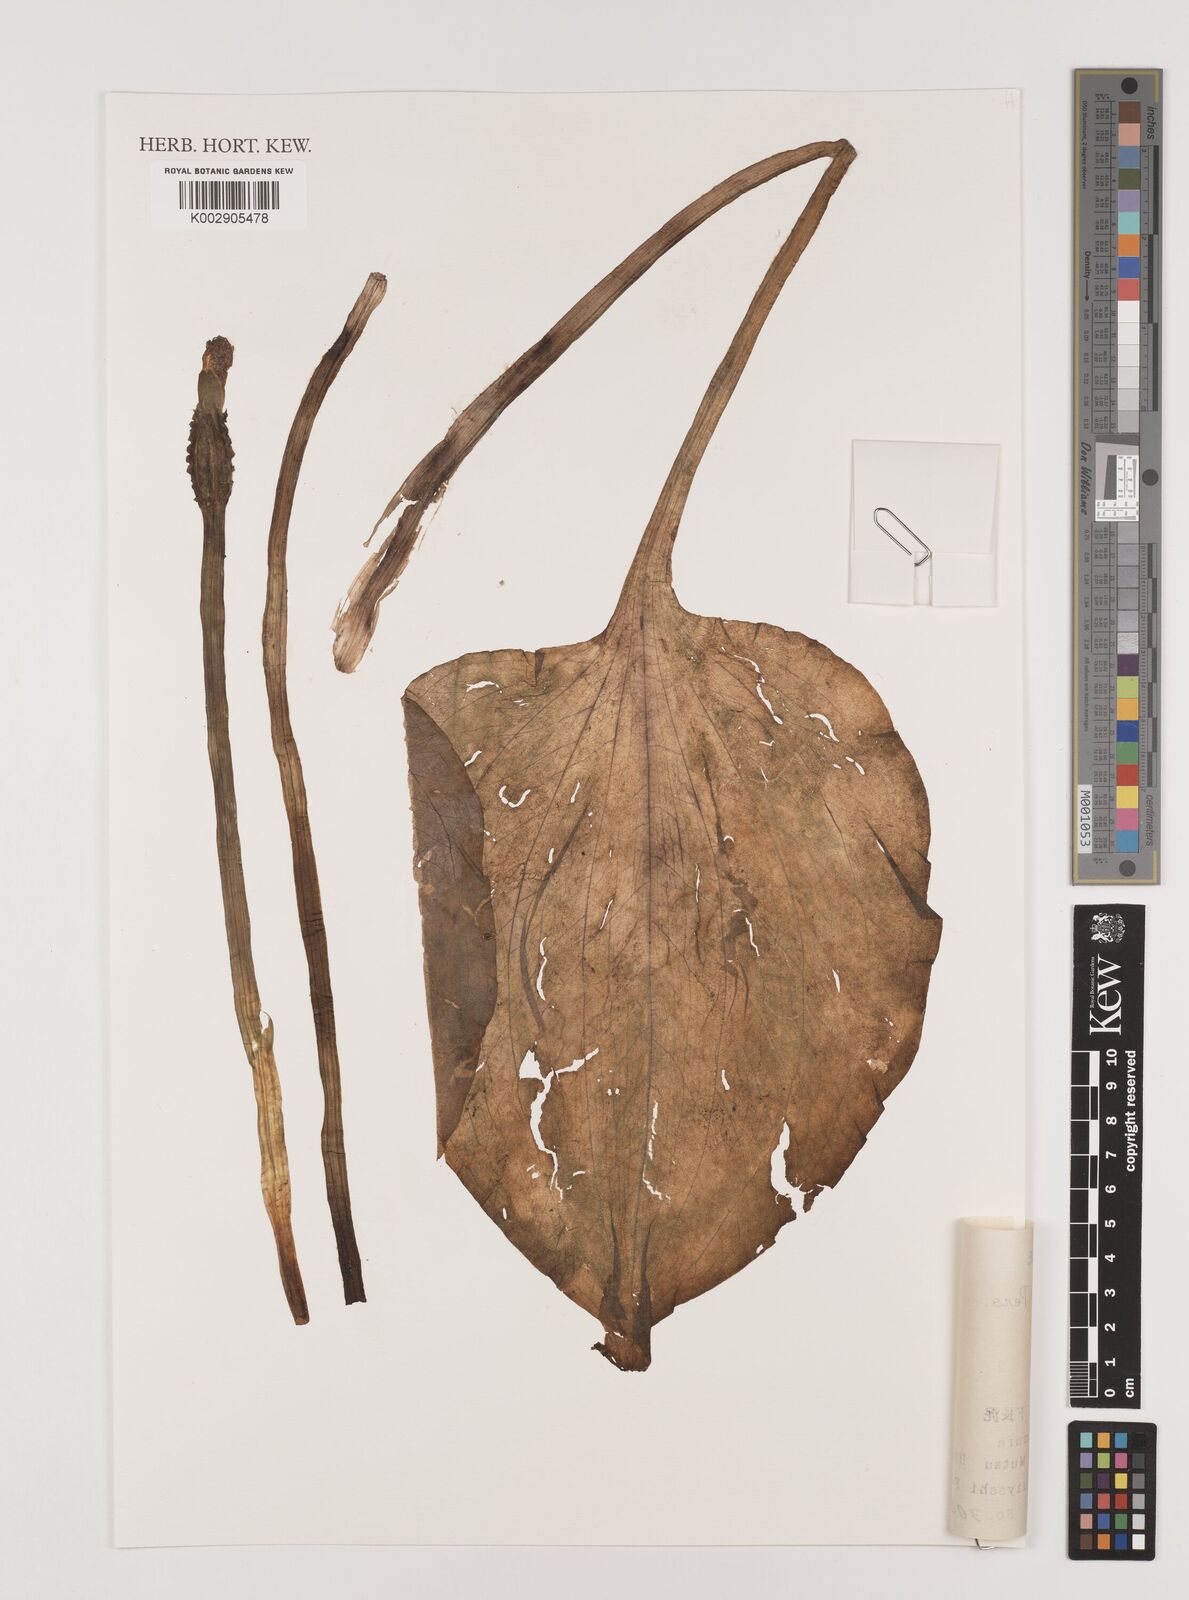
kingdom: Plantae
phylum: Tracheophyta
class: Liliopsida
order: Alismatales
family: Hydrocharitaceae
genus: Ottelia
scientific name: Ottelia alismoides
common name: Duck-lettuce
